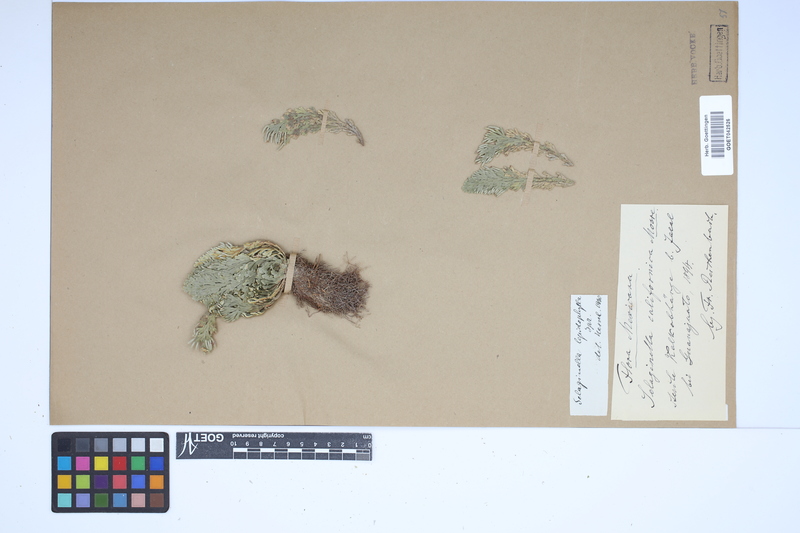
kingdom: Plantae
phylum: Tracheophyta
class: Lycopodiopsida
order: Selaginellales
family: Selaginellaceae
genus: Selaginella
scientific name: Selaginella lepidophylla
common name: Rose-of-jericho
